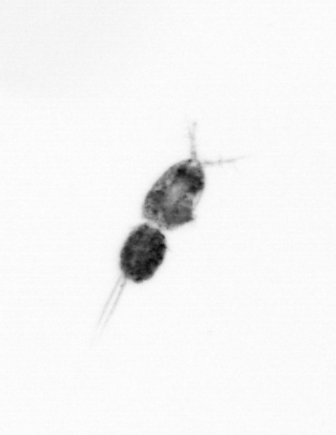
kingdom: Animalia
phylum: Arthropoda
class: Copepoda
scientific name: Copepoda
